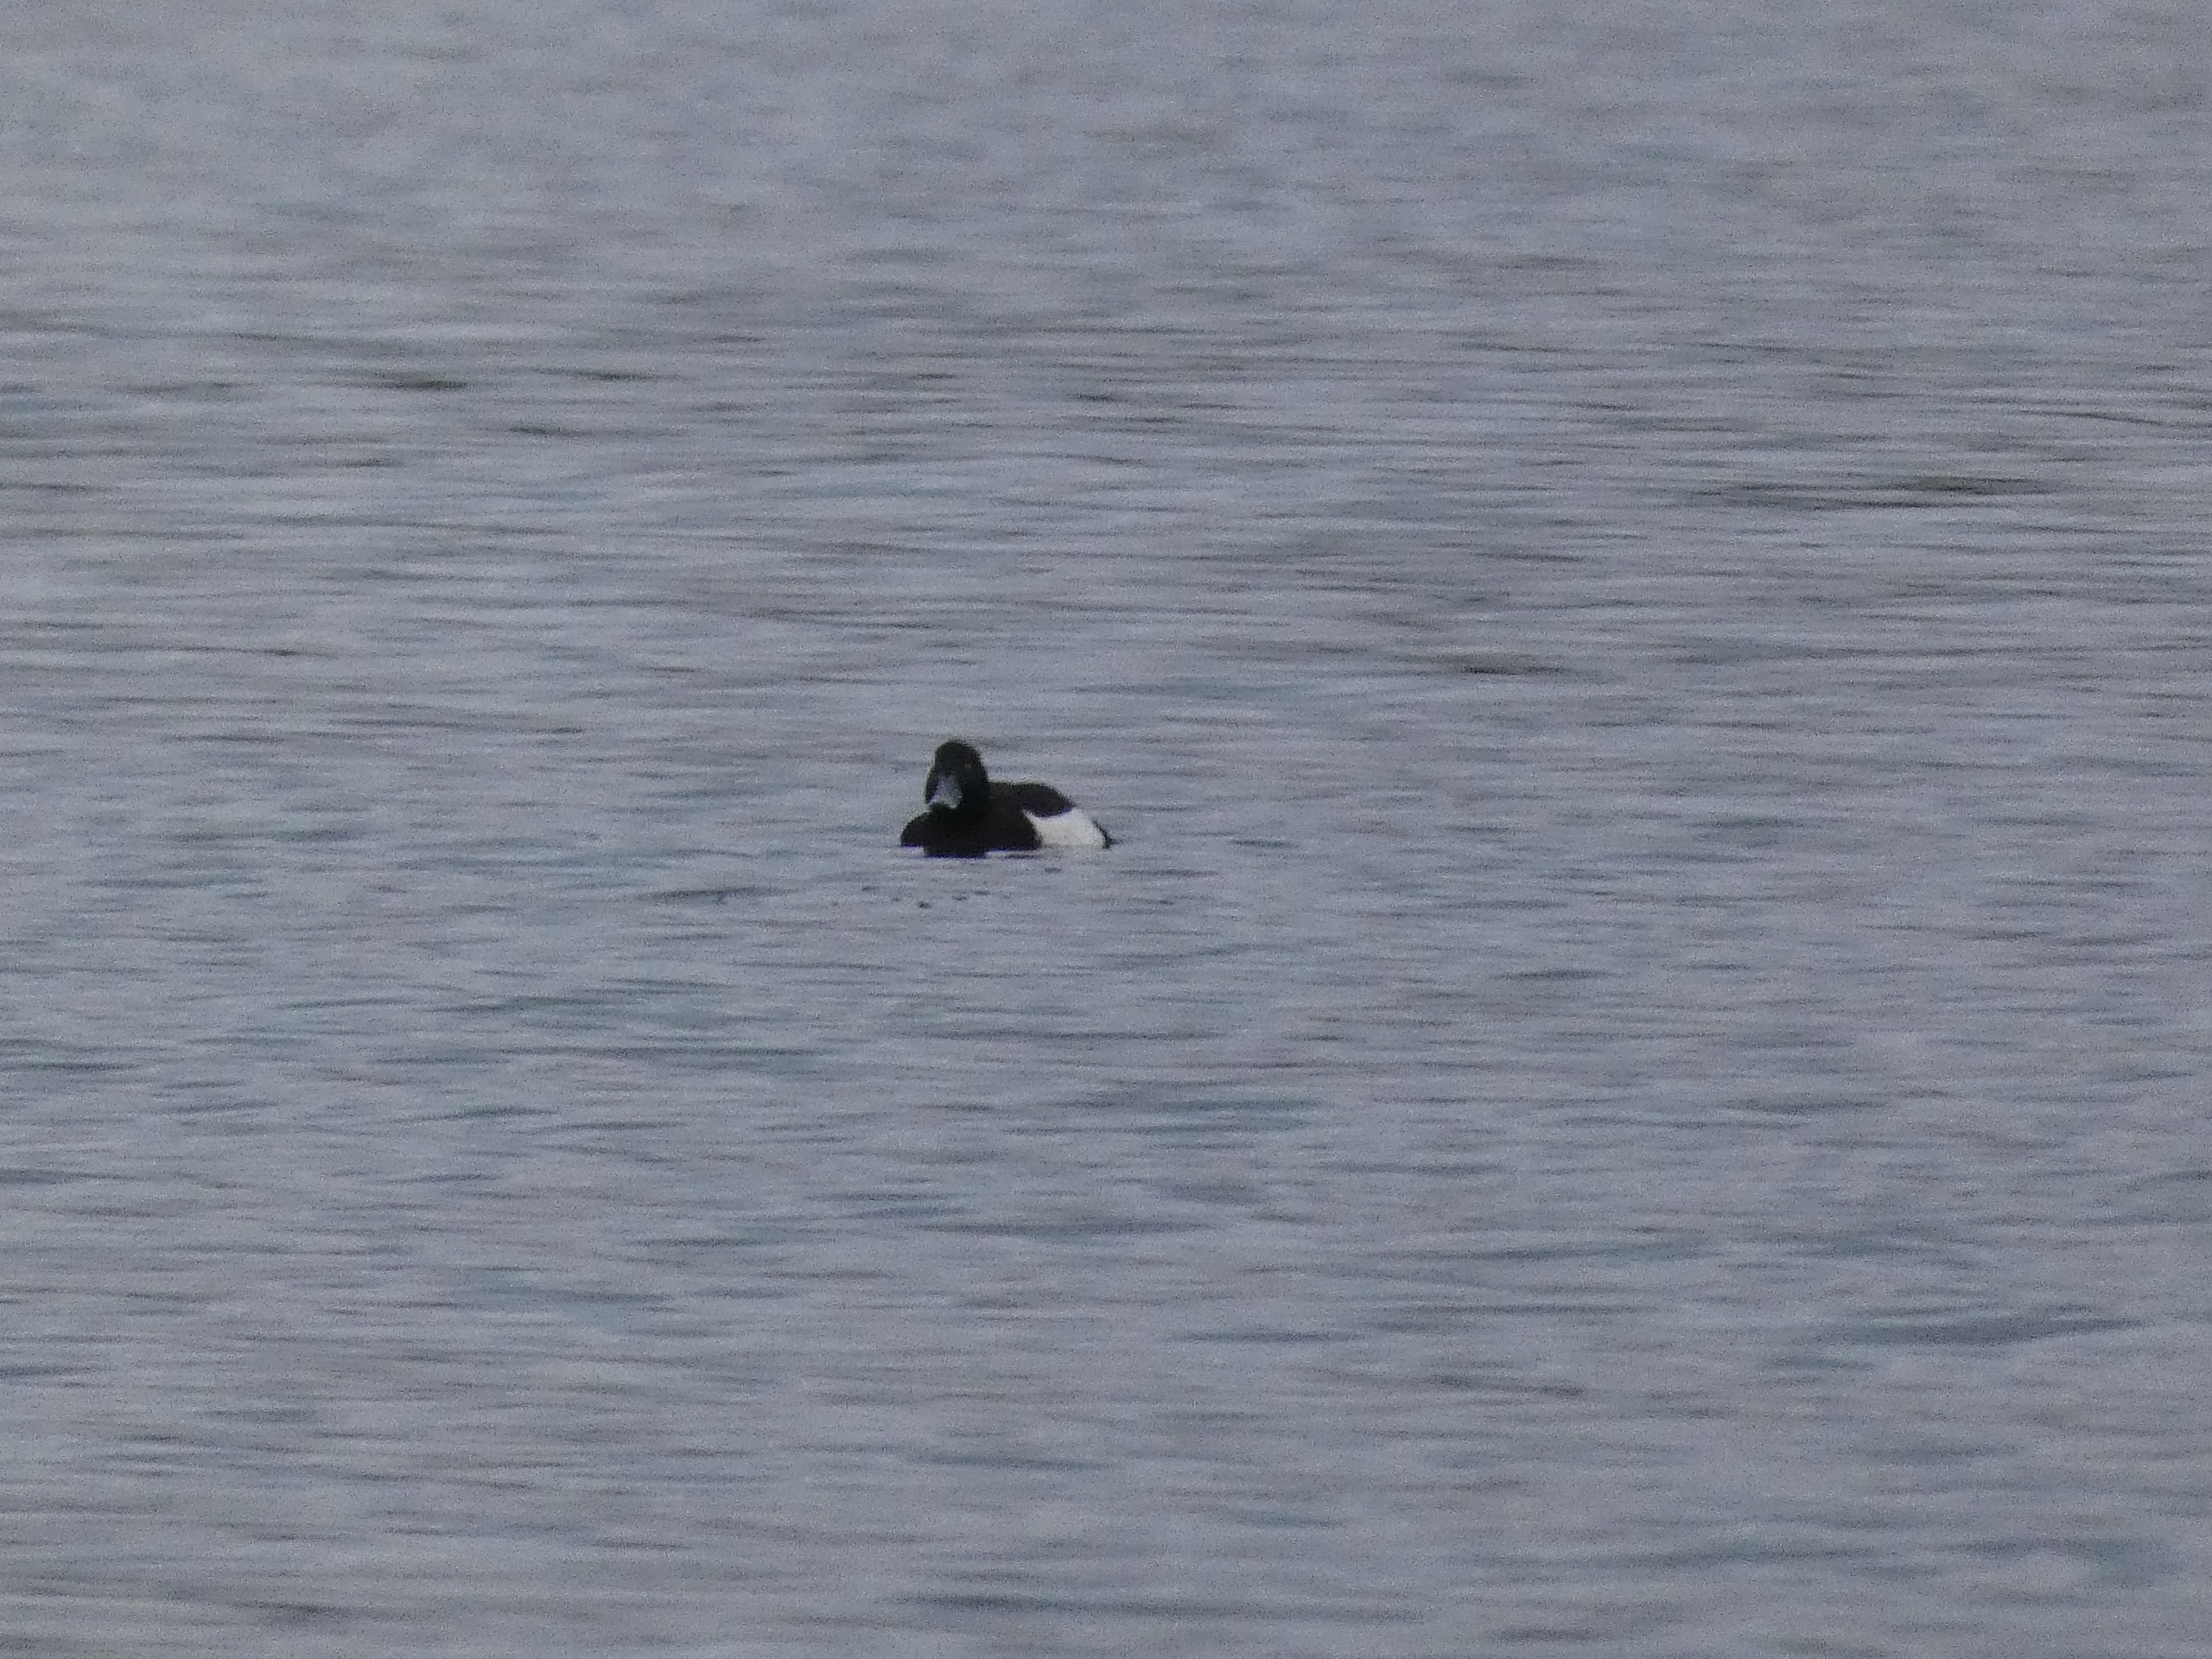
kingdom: Animalia
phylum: Chordata
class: Aves
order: Anseriformes
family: Anatidae
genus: Aythya
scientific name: Aythya fuligula
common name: Troldand
